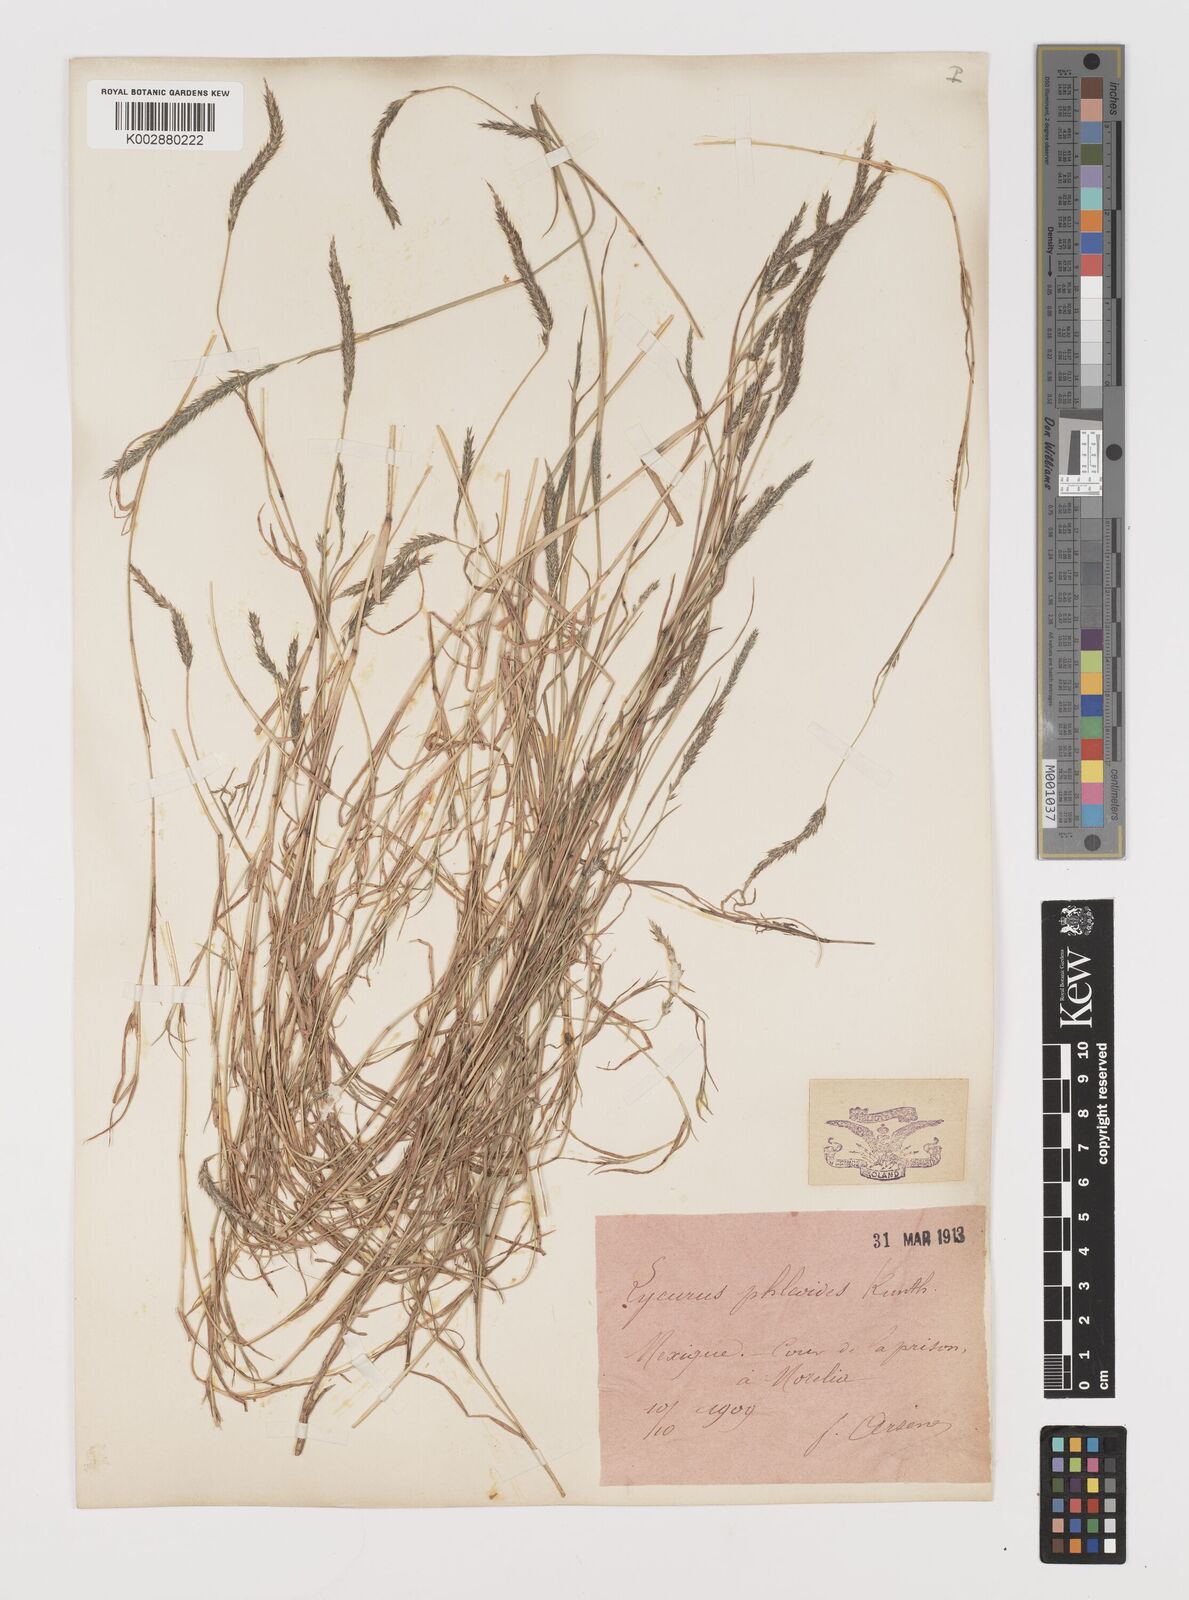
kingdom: Plantae
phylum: Tracheophyta
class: Liliopsida
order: Poales
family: Poaceae
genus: Muhlenbergia
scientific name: Muhlenbergia phleoides
